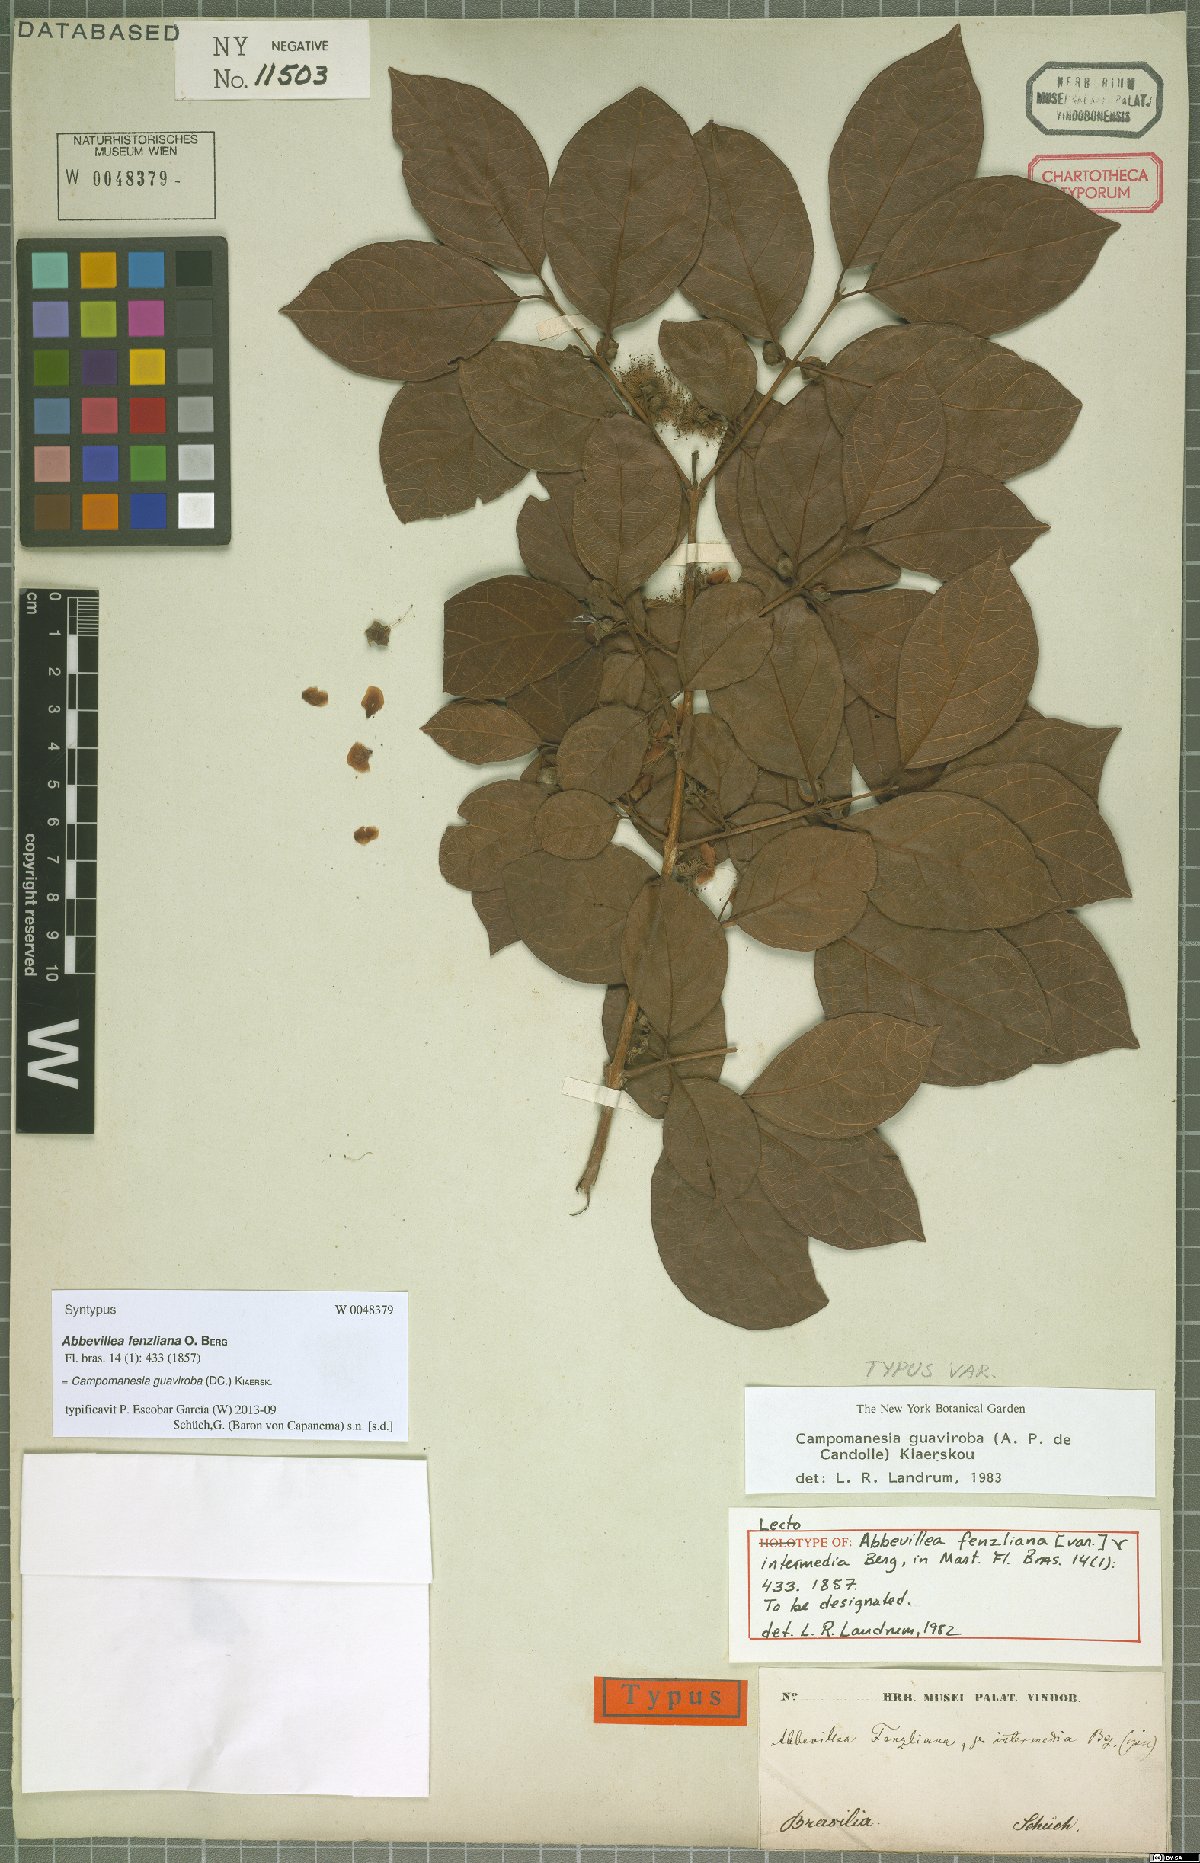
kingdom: Plantae
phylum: Tracheophyta
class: Magnoliopsida
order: Myrtales
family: Myrtaceae
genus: Campomanesia
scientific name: Campomanesia guaviroba
